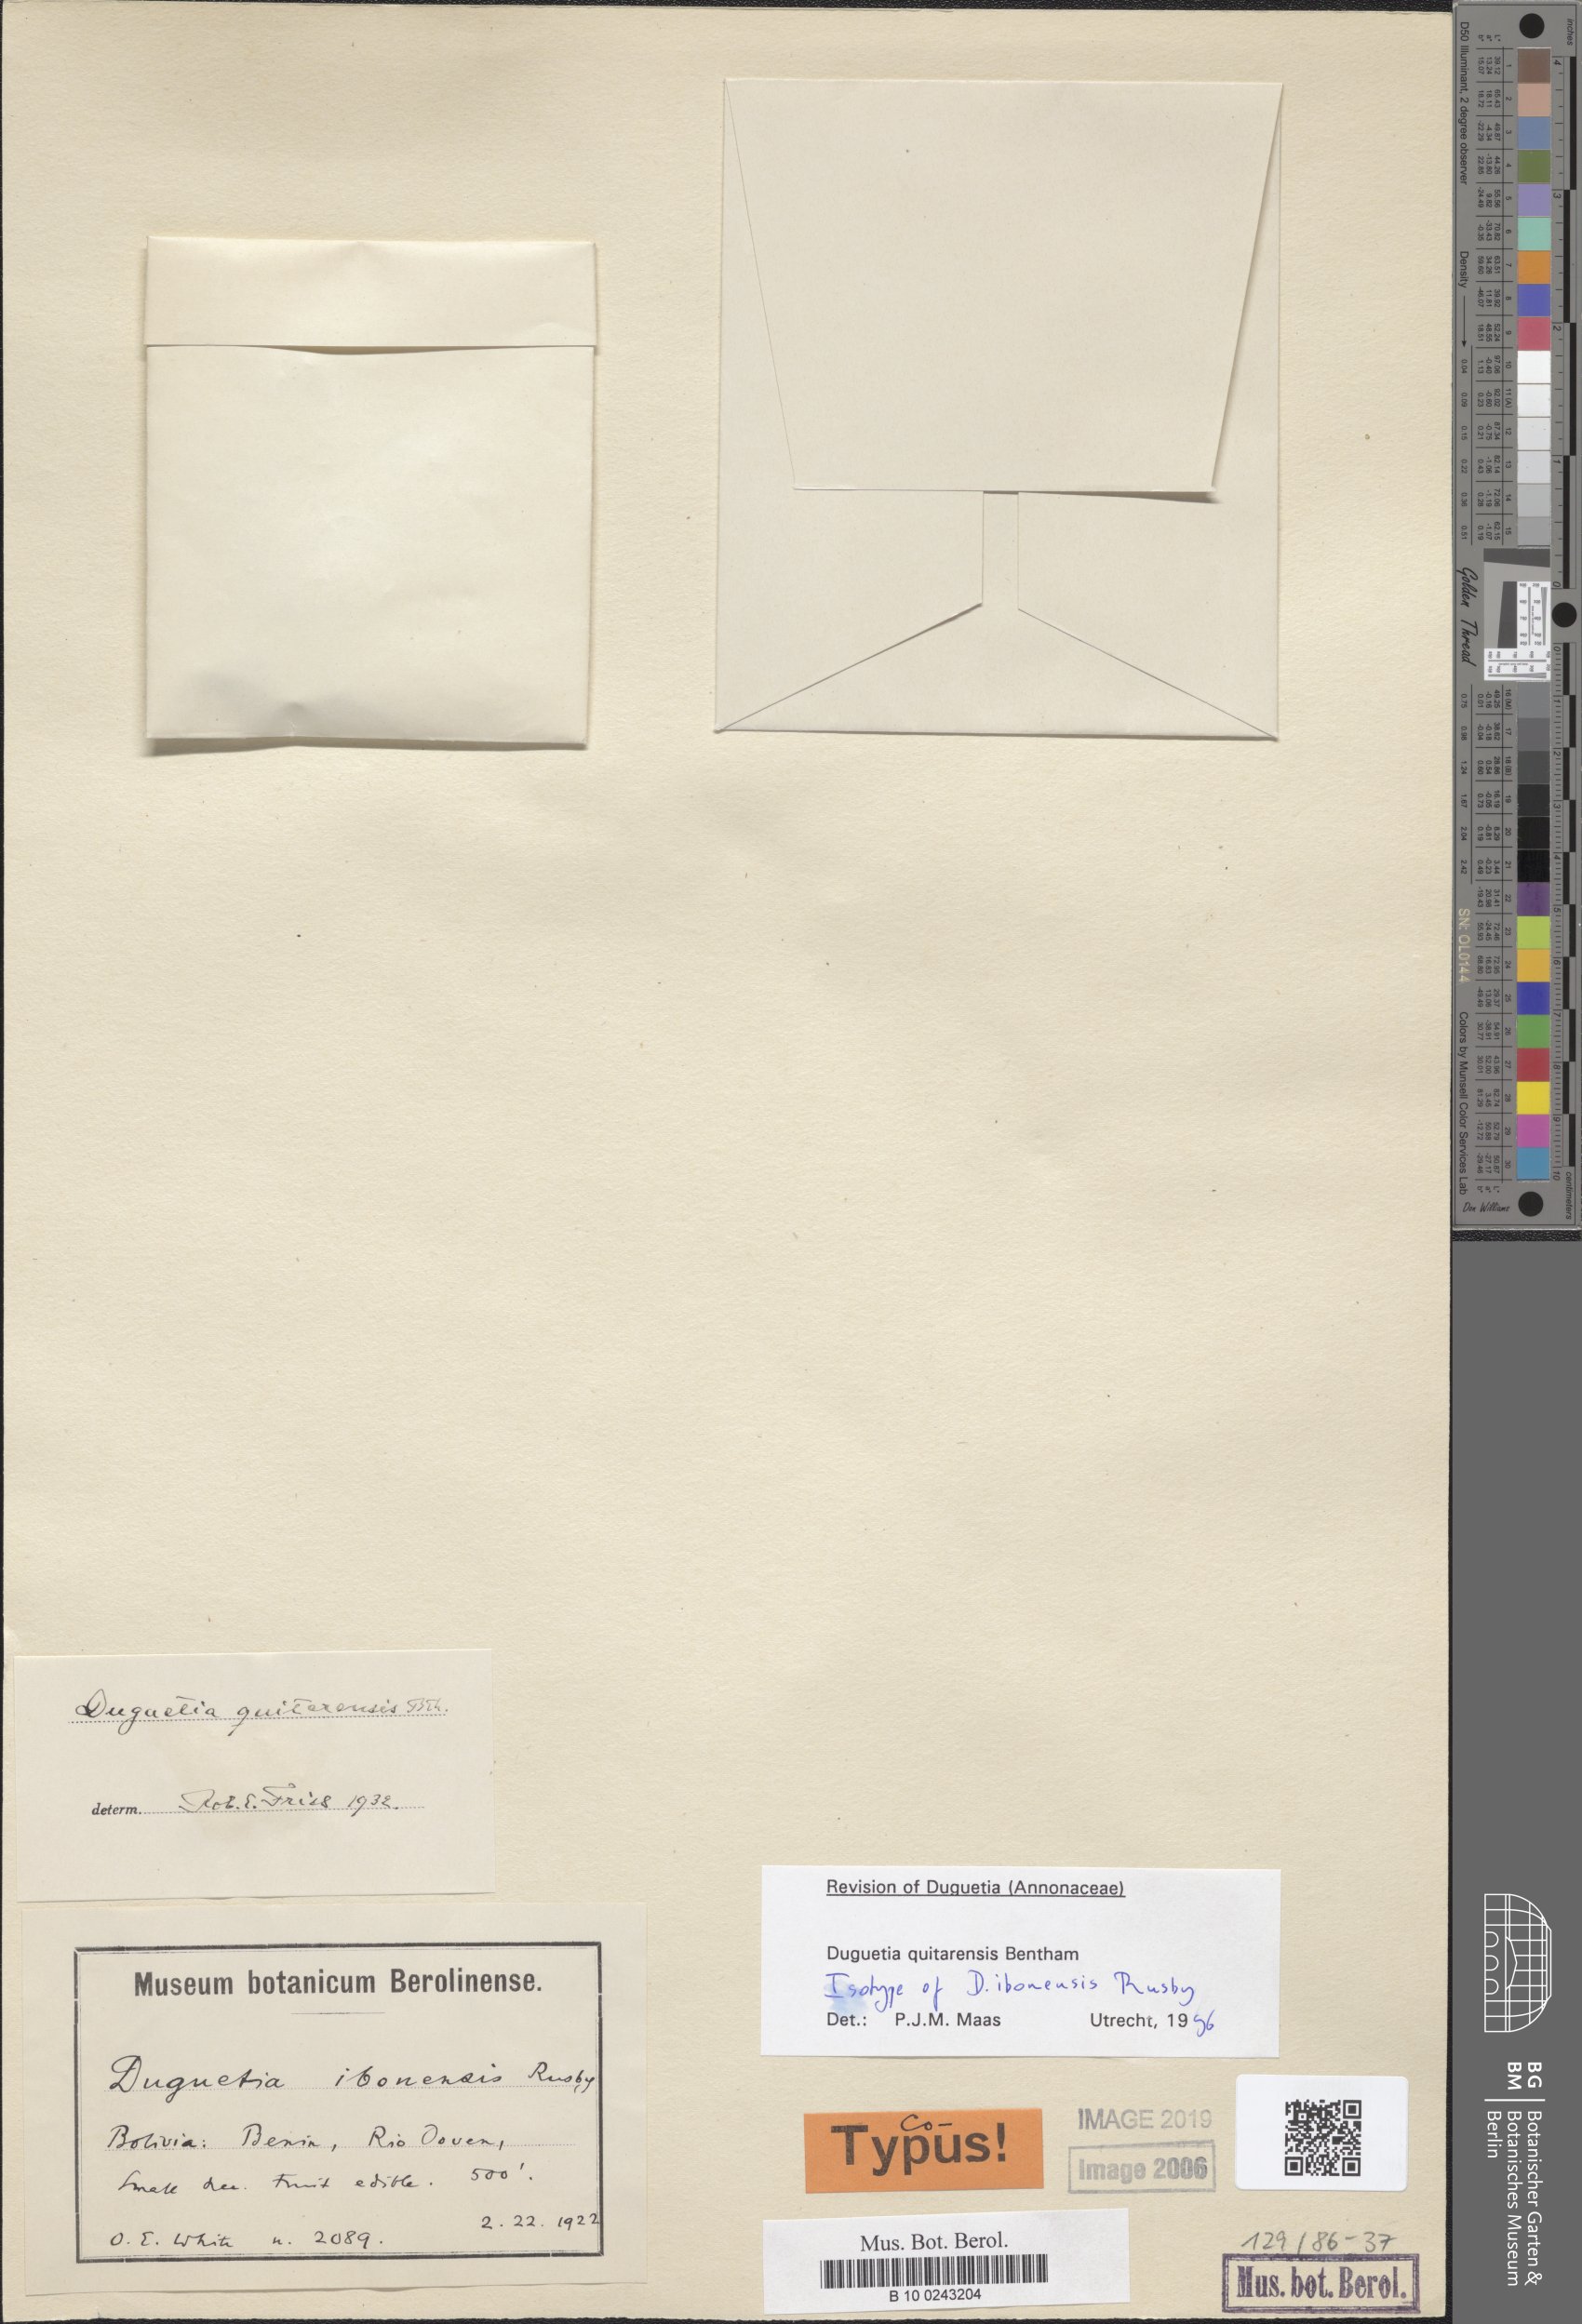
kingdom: Plantae
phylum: Tracheophyta
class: Magnoliopsida
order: Magnoliales
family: Annonaceae
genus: Duguetia
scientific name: Duguetia quitarensis
